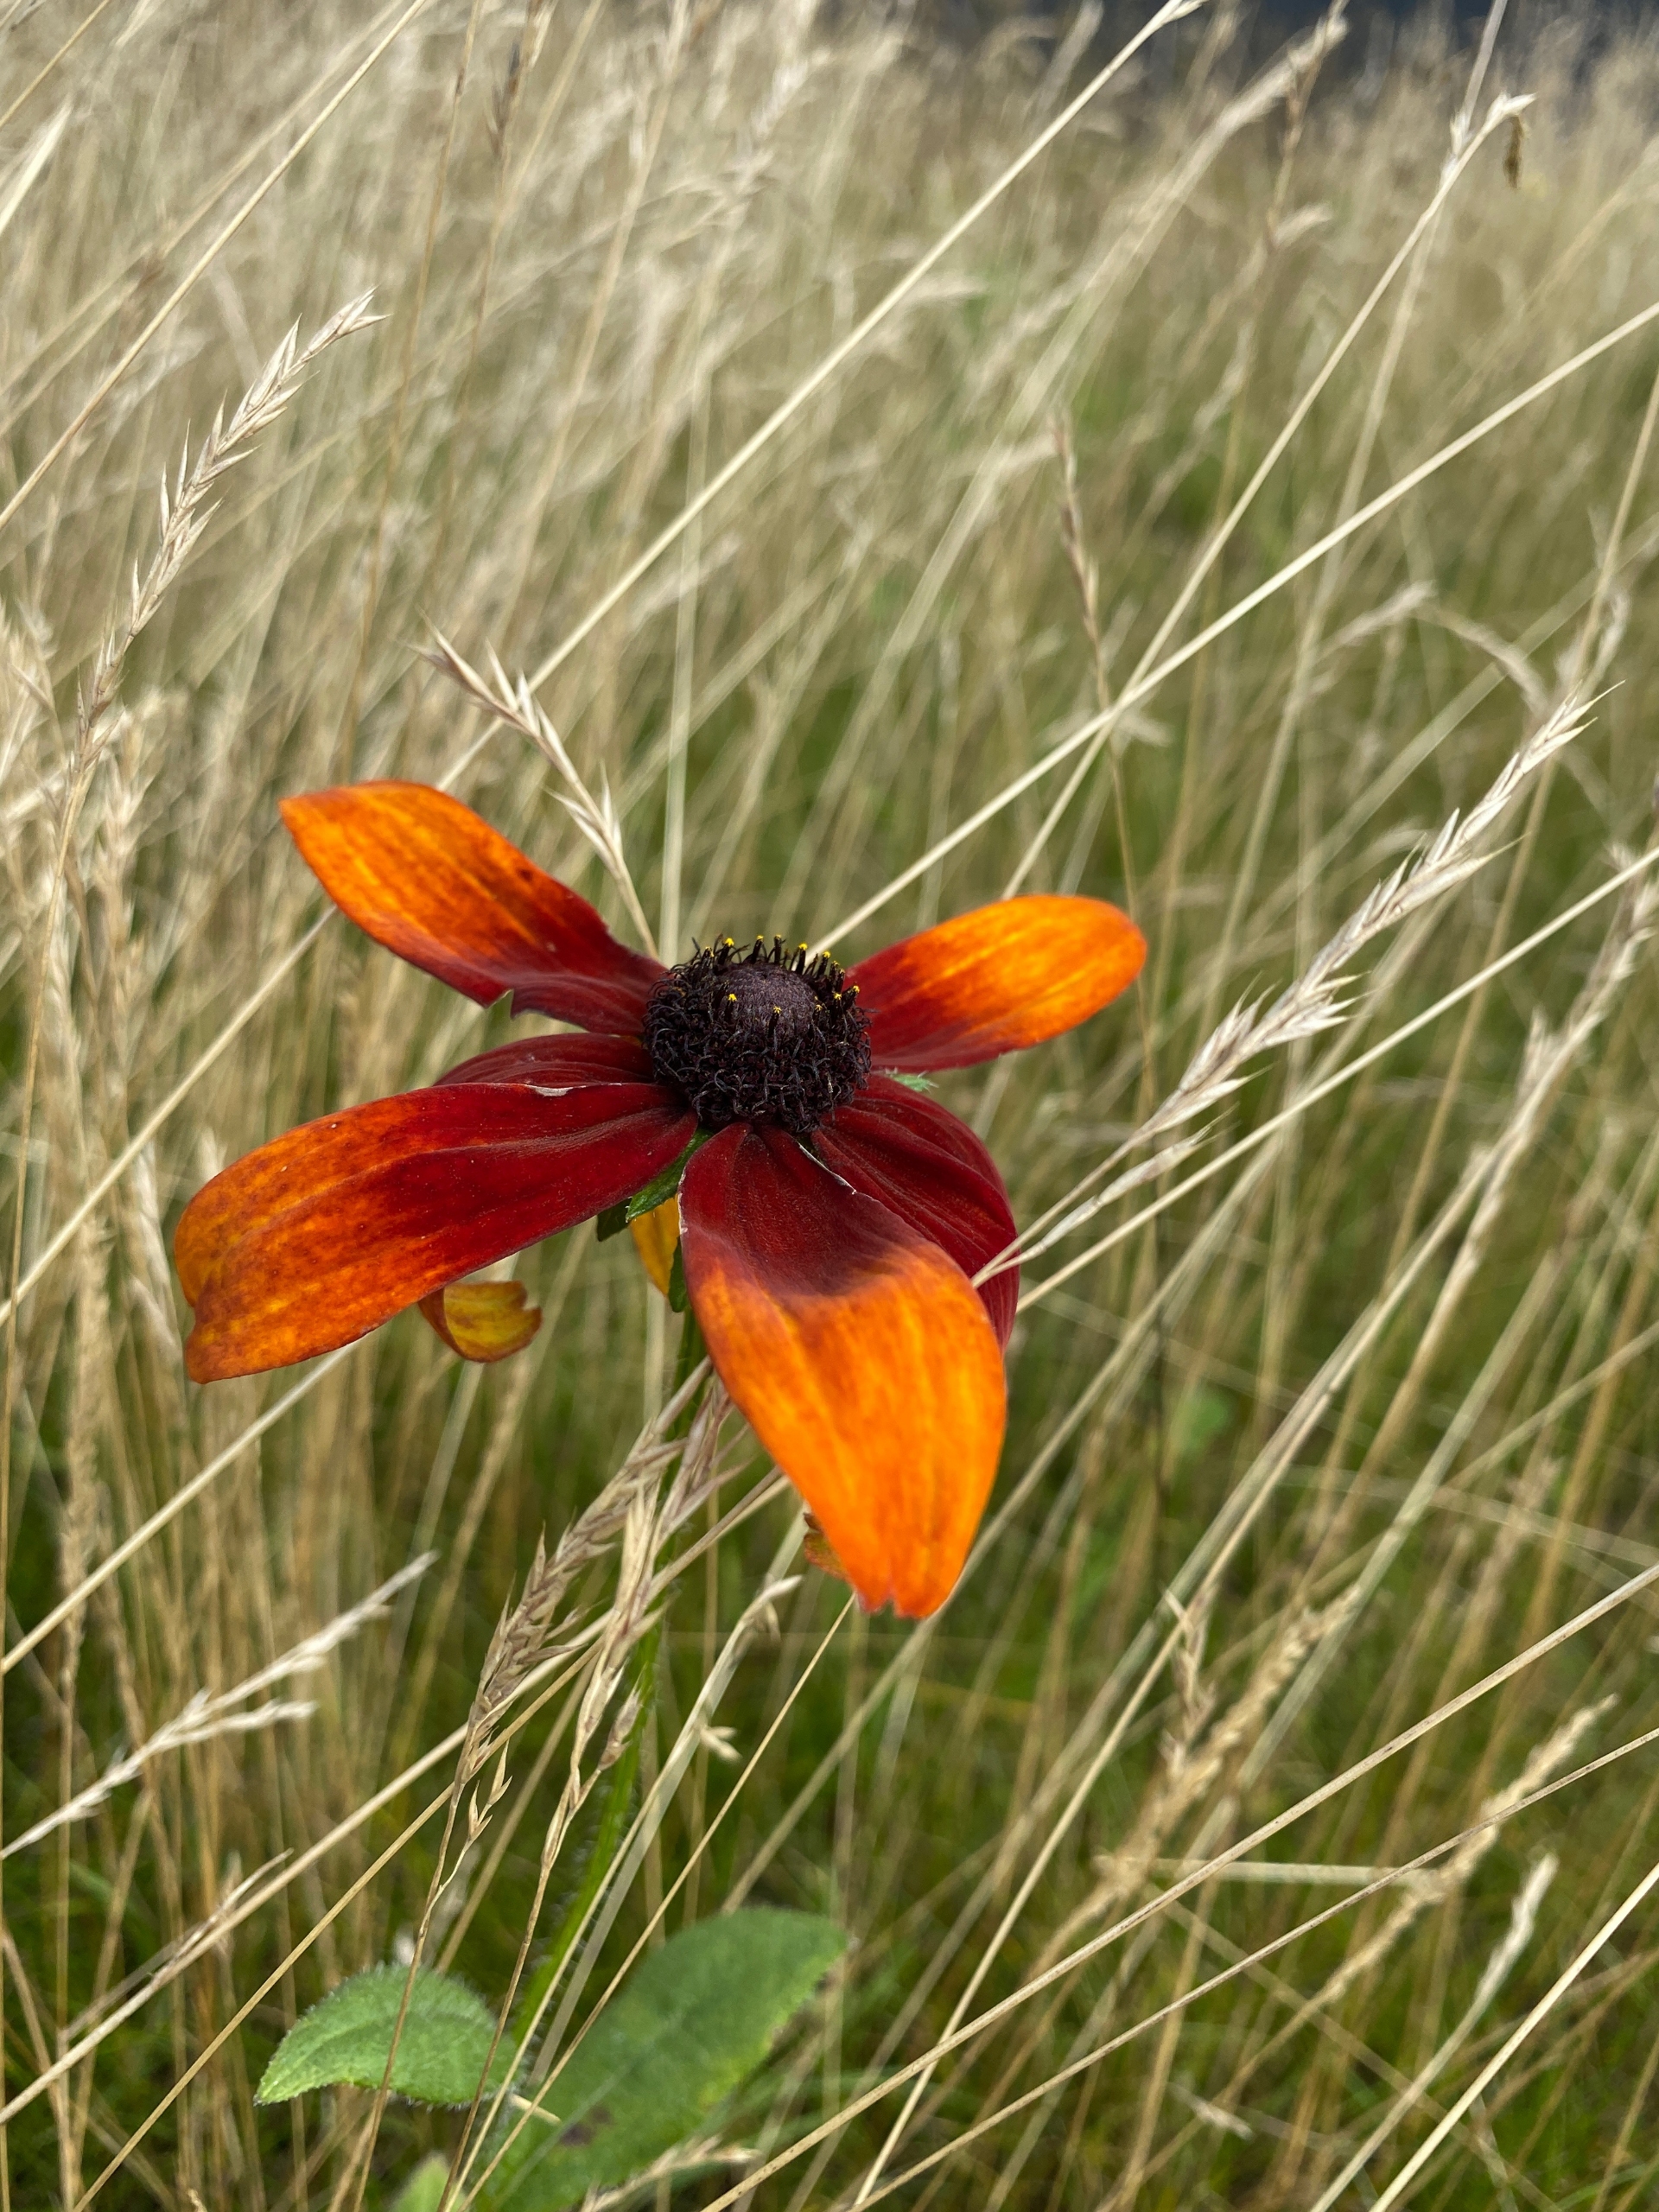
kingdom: Plantae
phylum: Tracheophyta
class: Magnoliopsida
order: Asterales
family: Asteraceae
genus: Rudbeckia
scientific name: Rudbeckia hirta
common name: Håret solhat
